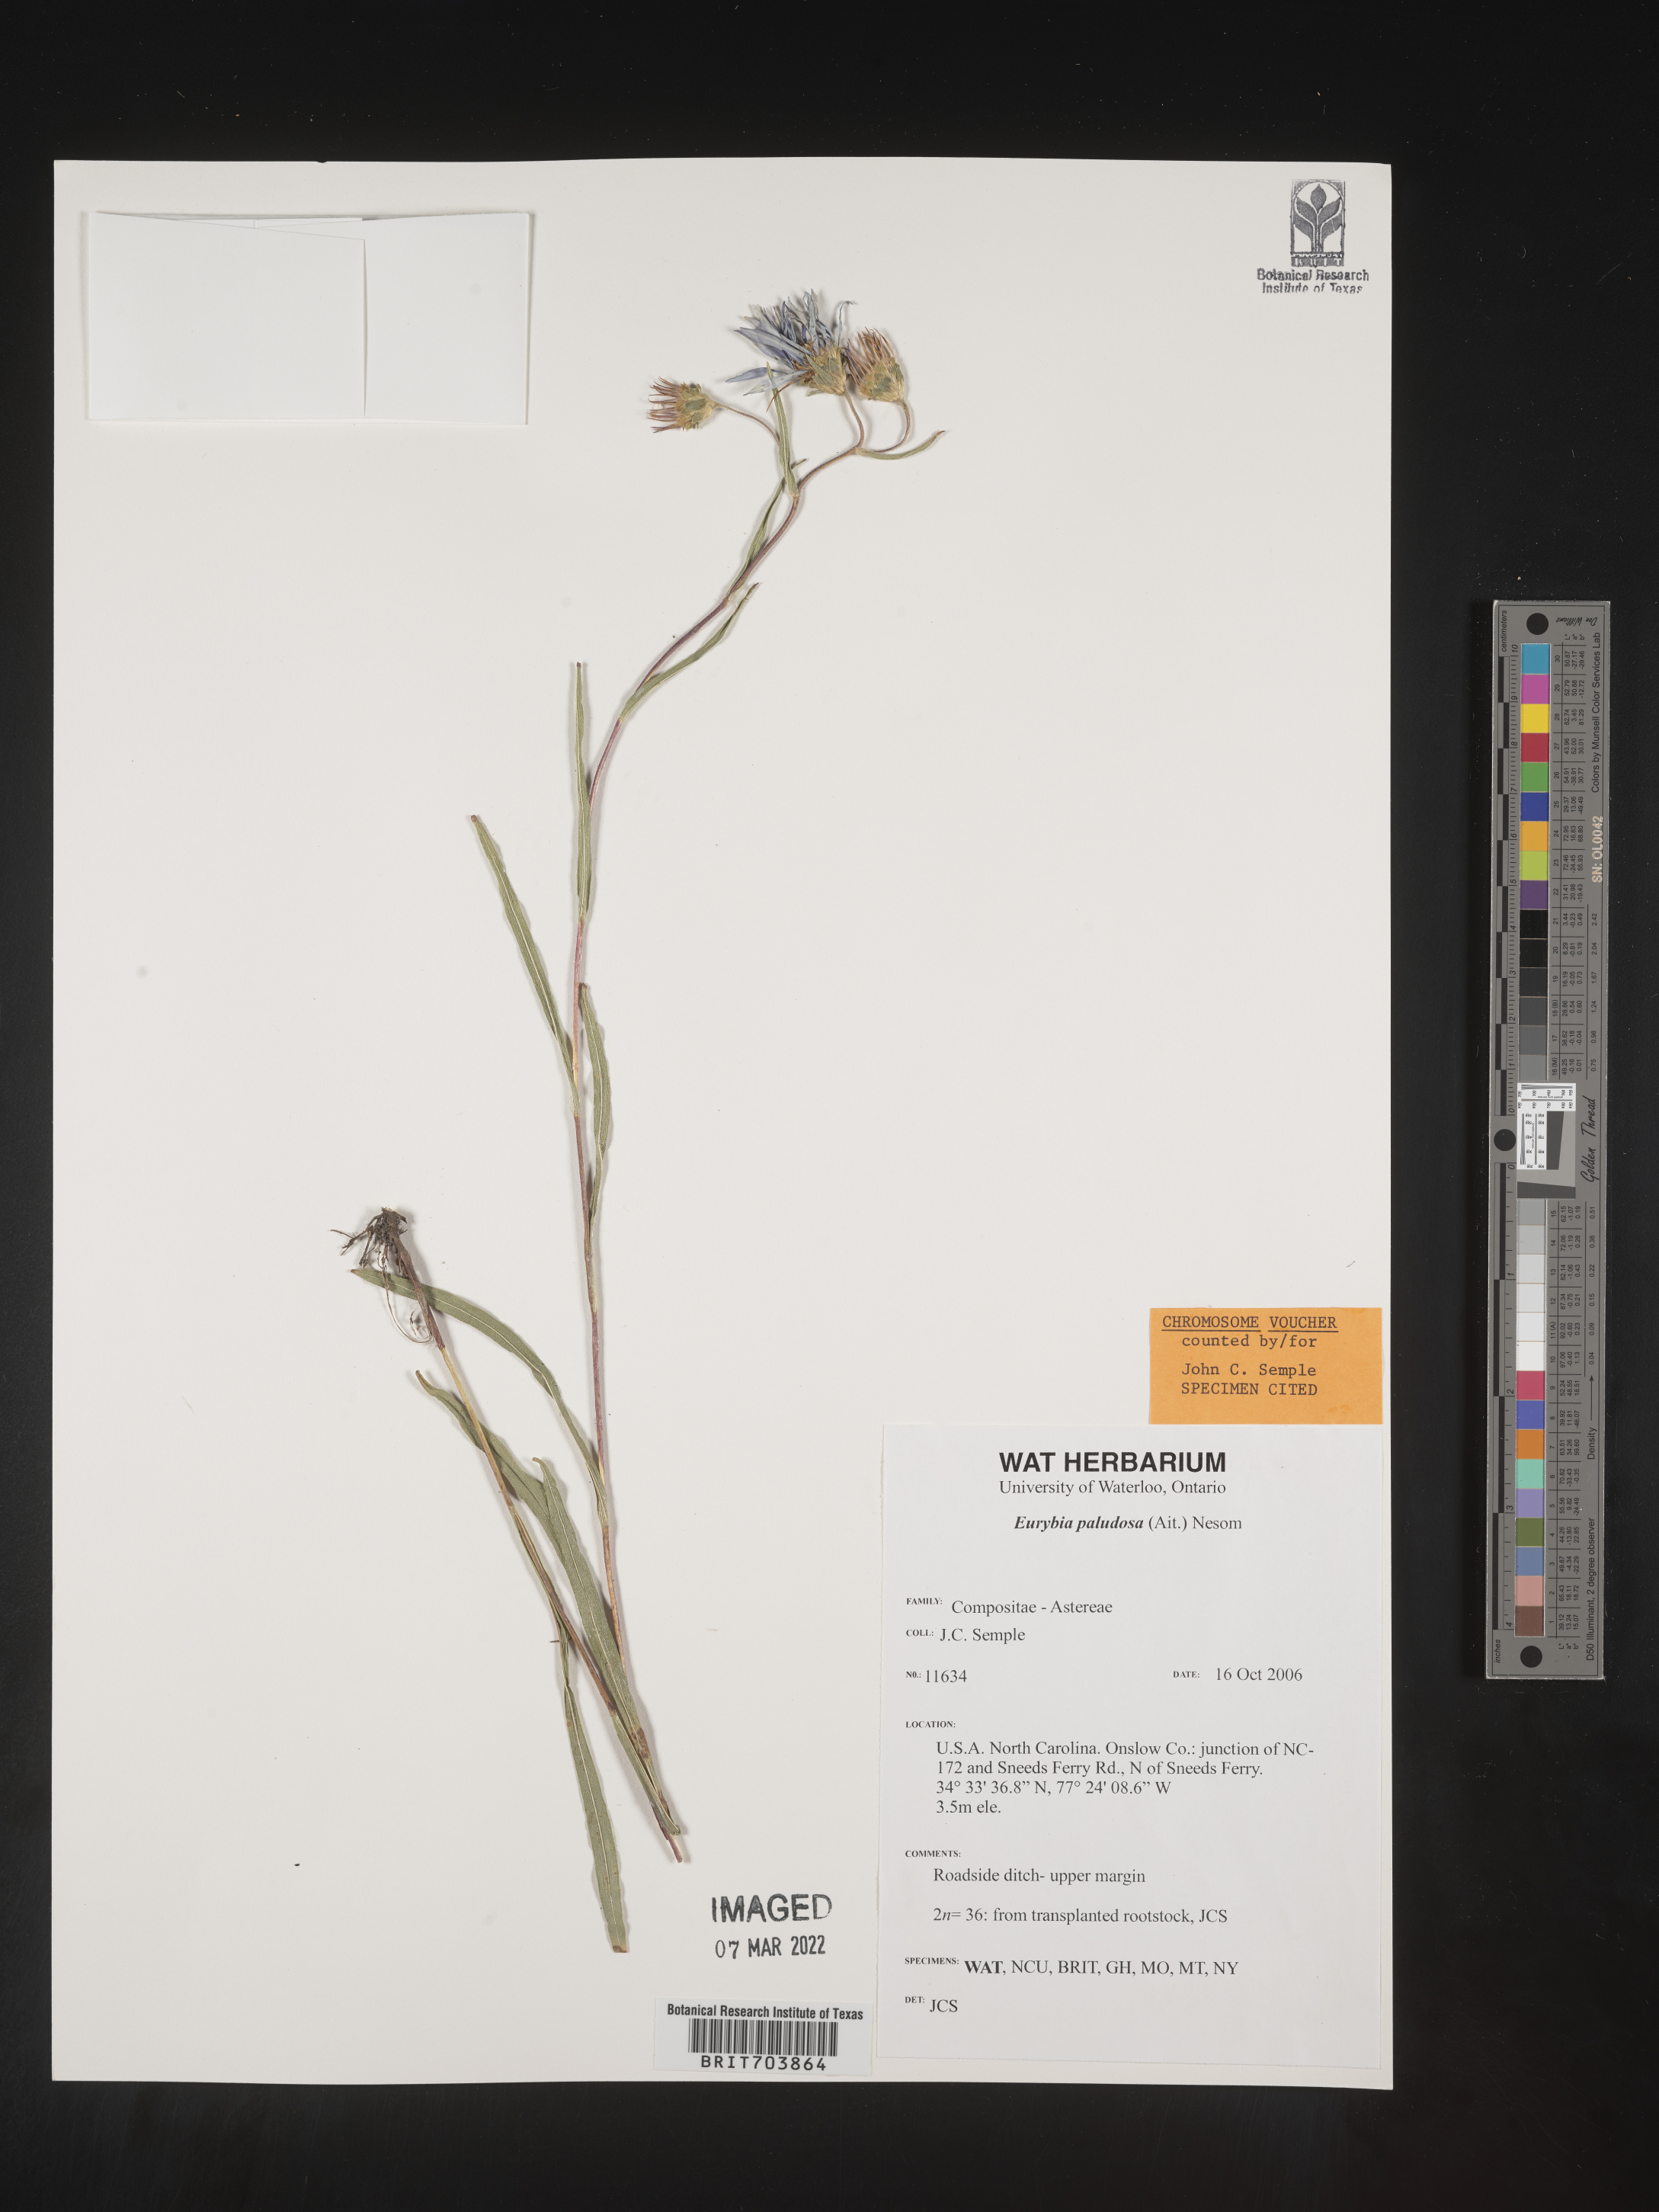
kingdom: Plantae
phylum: Tracheophyta
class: Magnoliopsida
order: Asterales
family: Asteraceae
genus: Eurybia
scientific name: Eurybia paludosa
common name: Southern swamp aster
